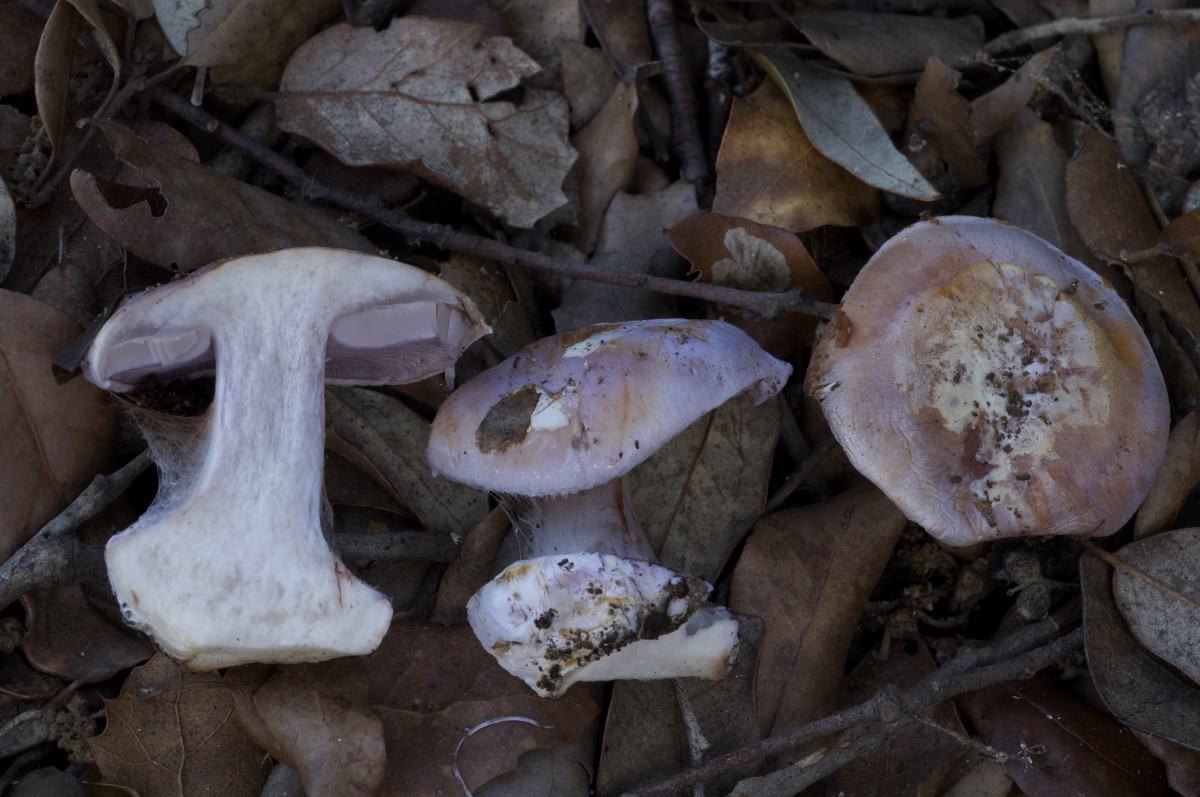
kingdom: Fungi
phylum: Basidiomycota
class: Agaricomycetes
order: Agaricales
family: Cortinariaceae
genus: Calonarius
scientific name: Calonarius nymphicolor
